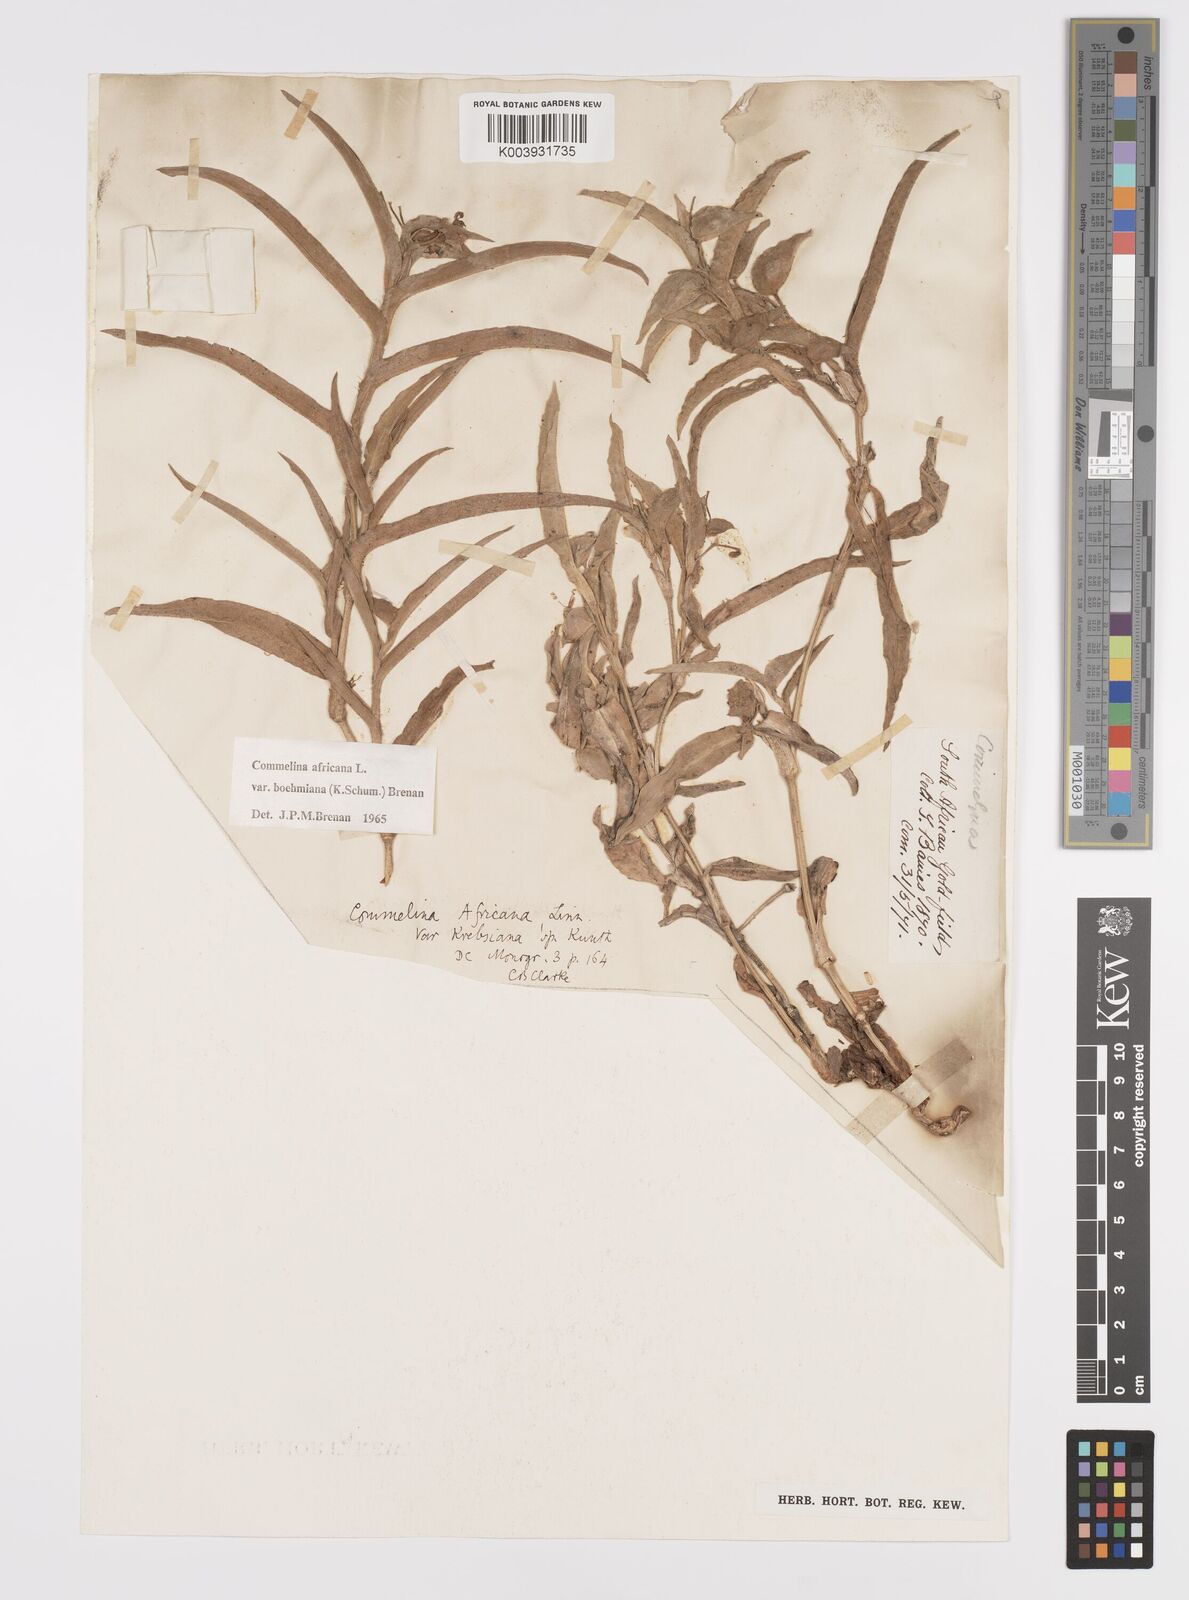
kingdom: Plantae
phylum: Tracheophyta
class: Liliopsida
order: Commelinales
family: Commelinaceae
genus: Commelina
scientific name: Commelina africana
